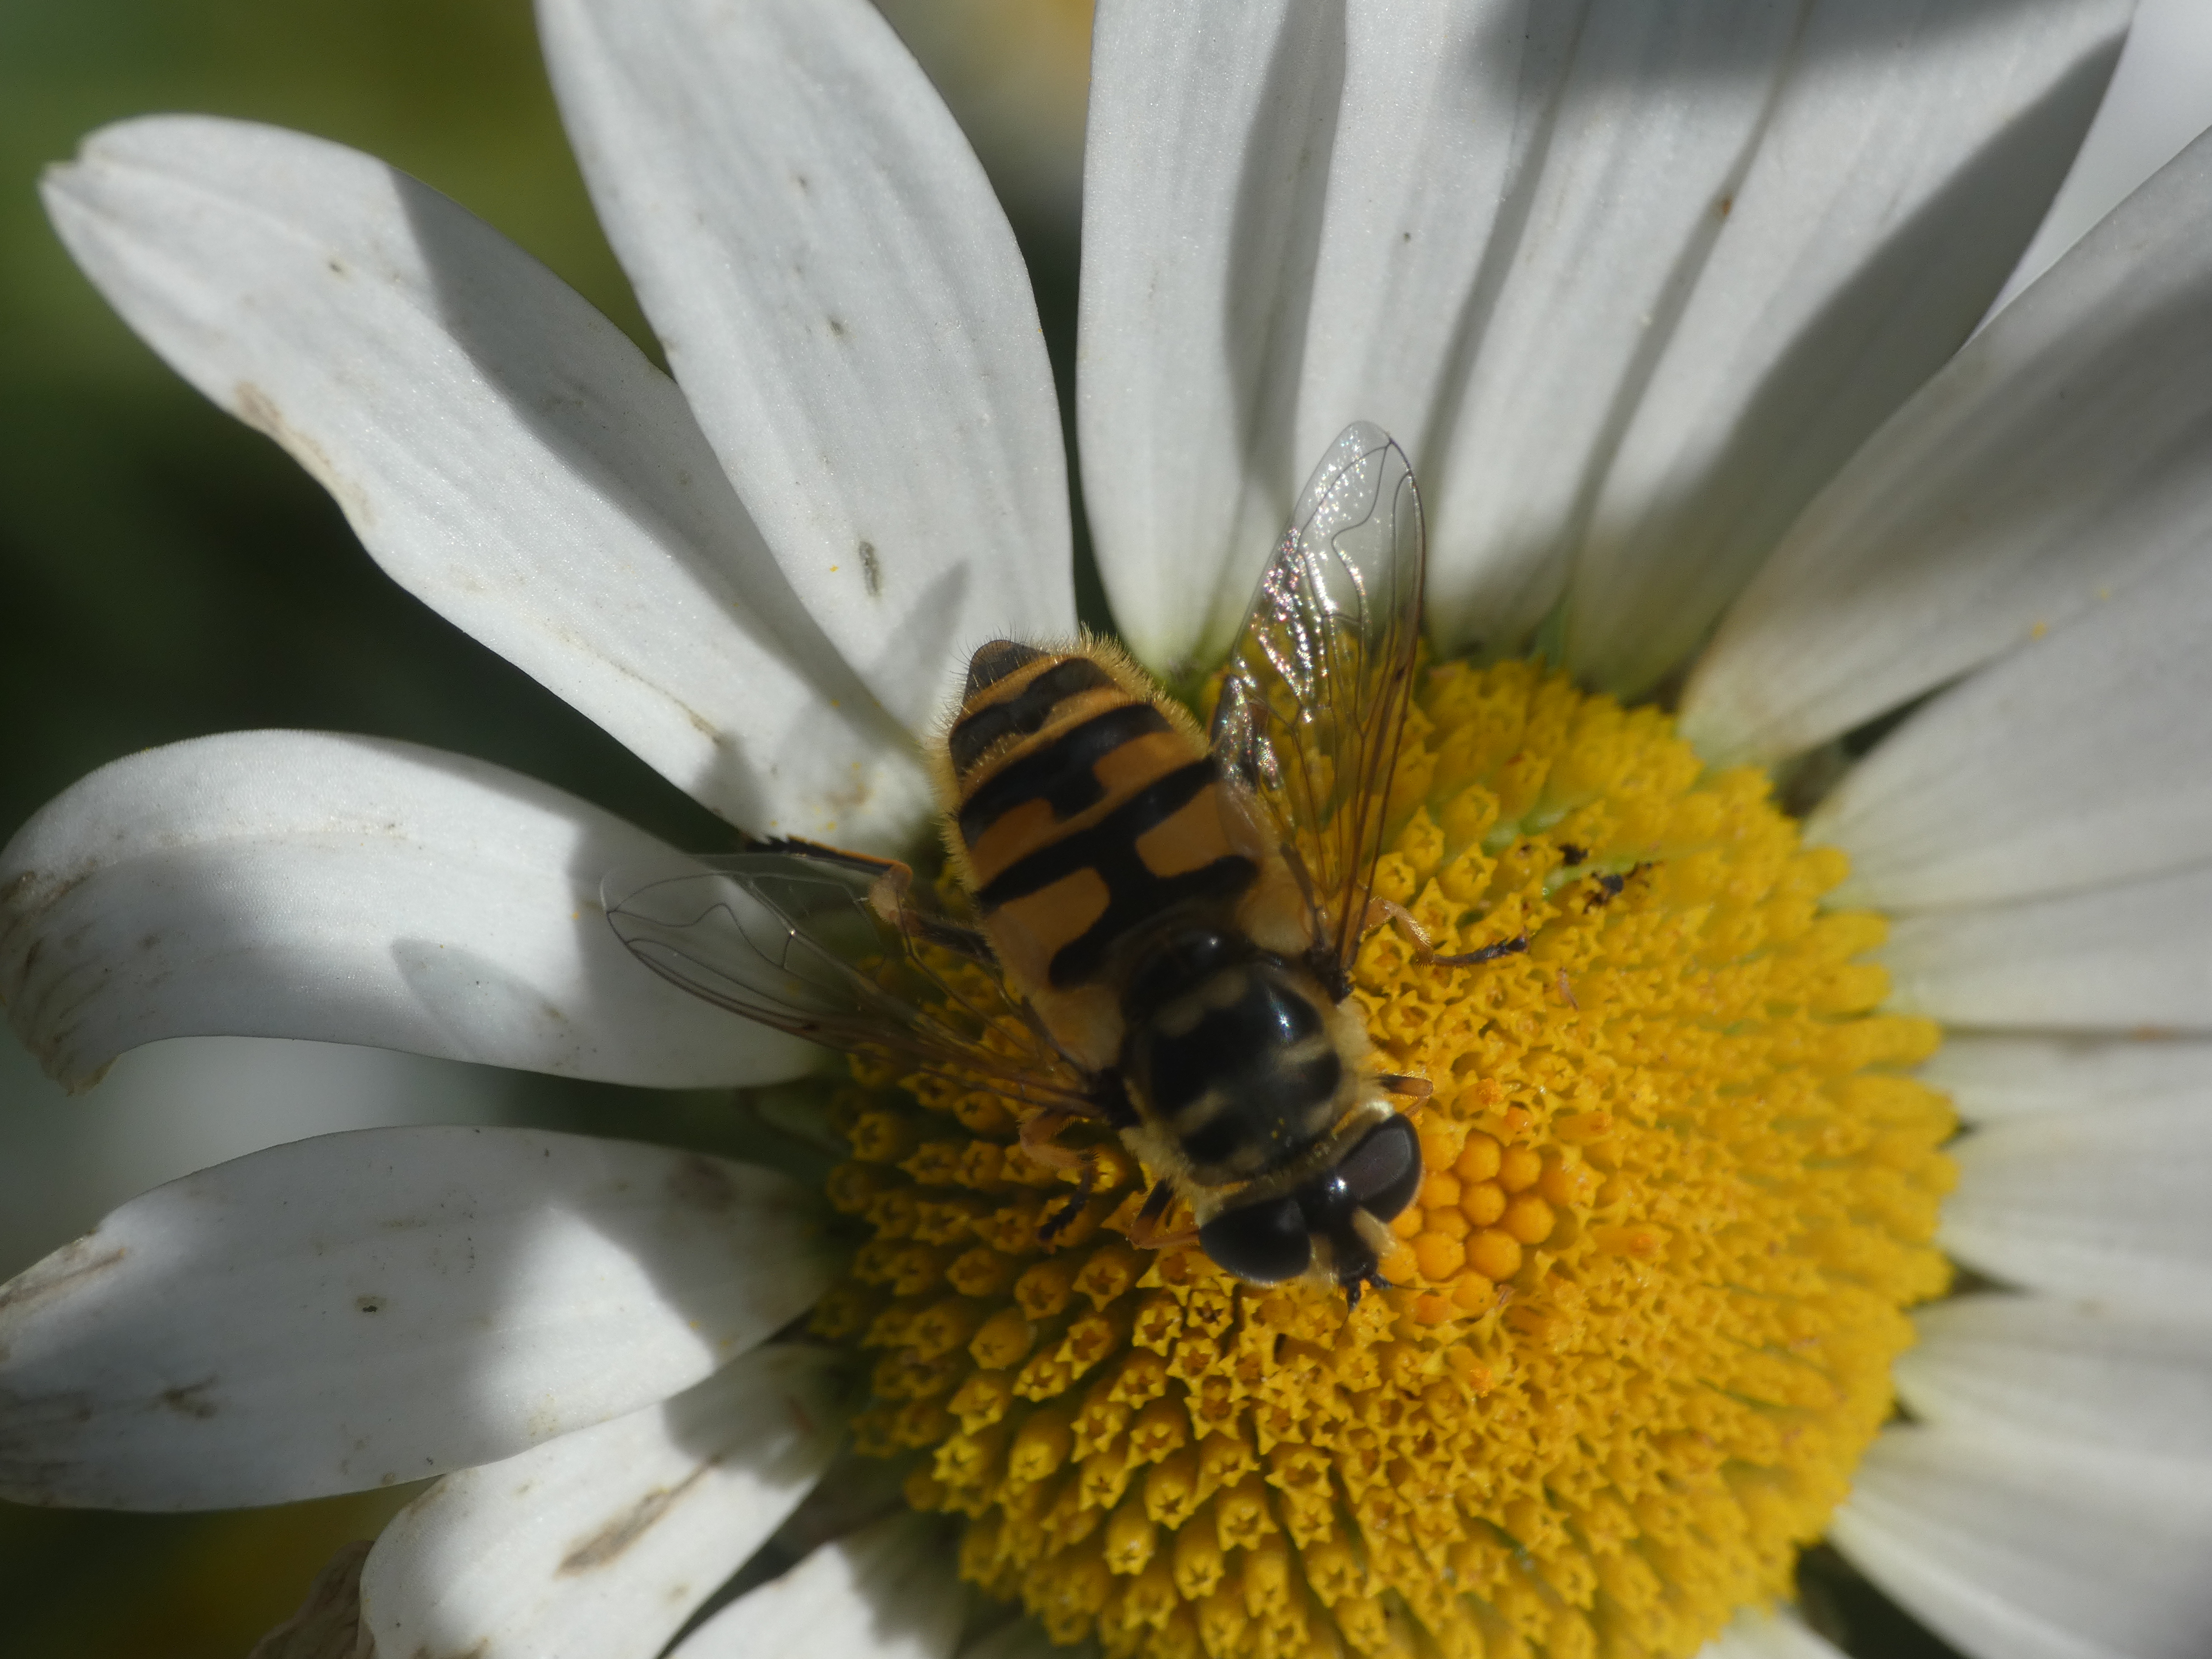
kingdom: Animalia
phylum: Arthropoda
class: Insecta
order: Diptera
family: Syrphidae
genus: Myathropa
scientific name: Myathropa florea
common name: Dødningehoved-svirreflue
